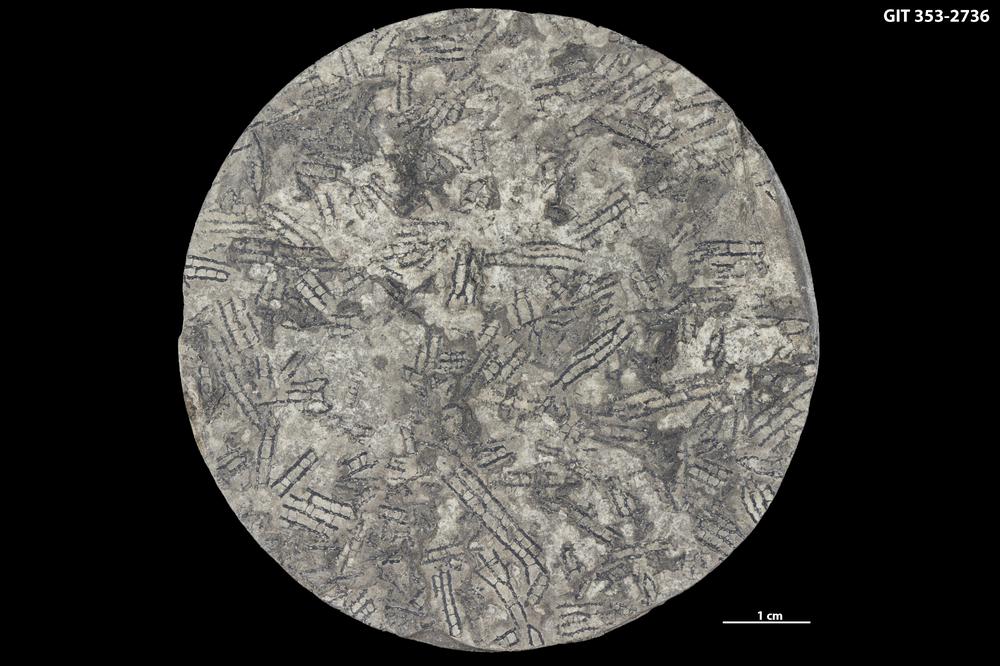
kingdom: Animalia
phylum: Hemichordata
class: Pterobranchia
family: Anisograptidae
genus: Rhabdinopora
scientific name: Rhabdinopora
